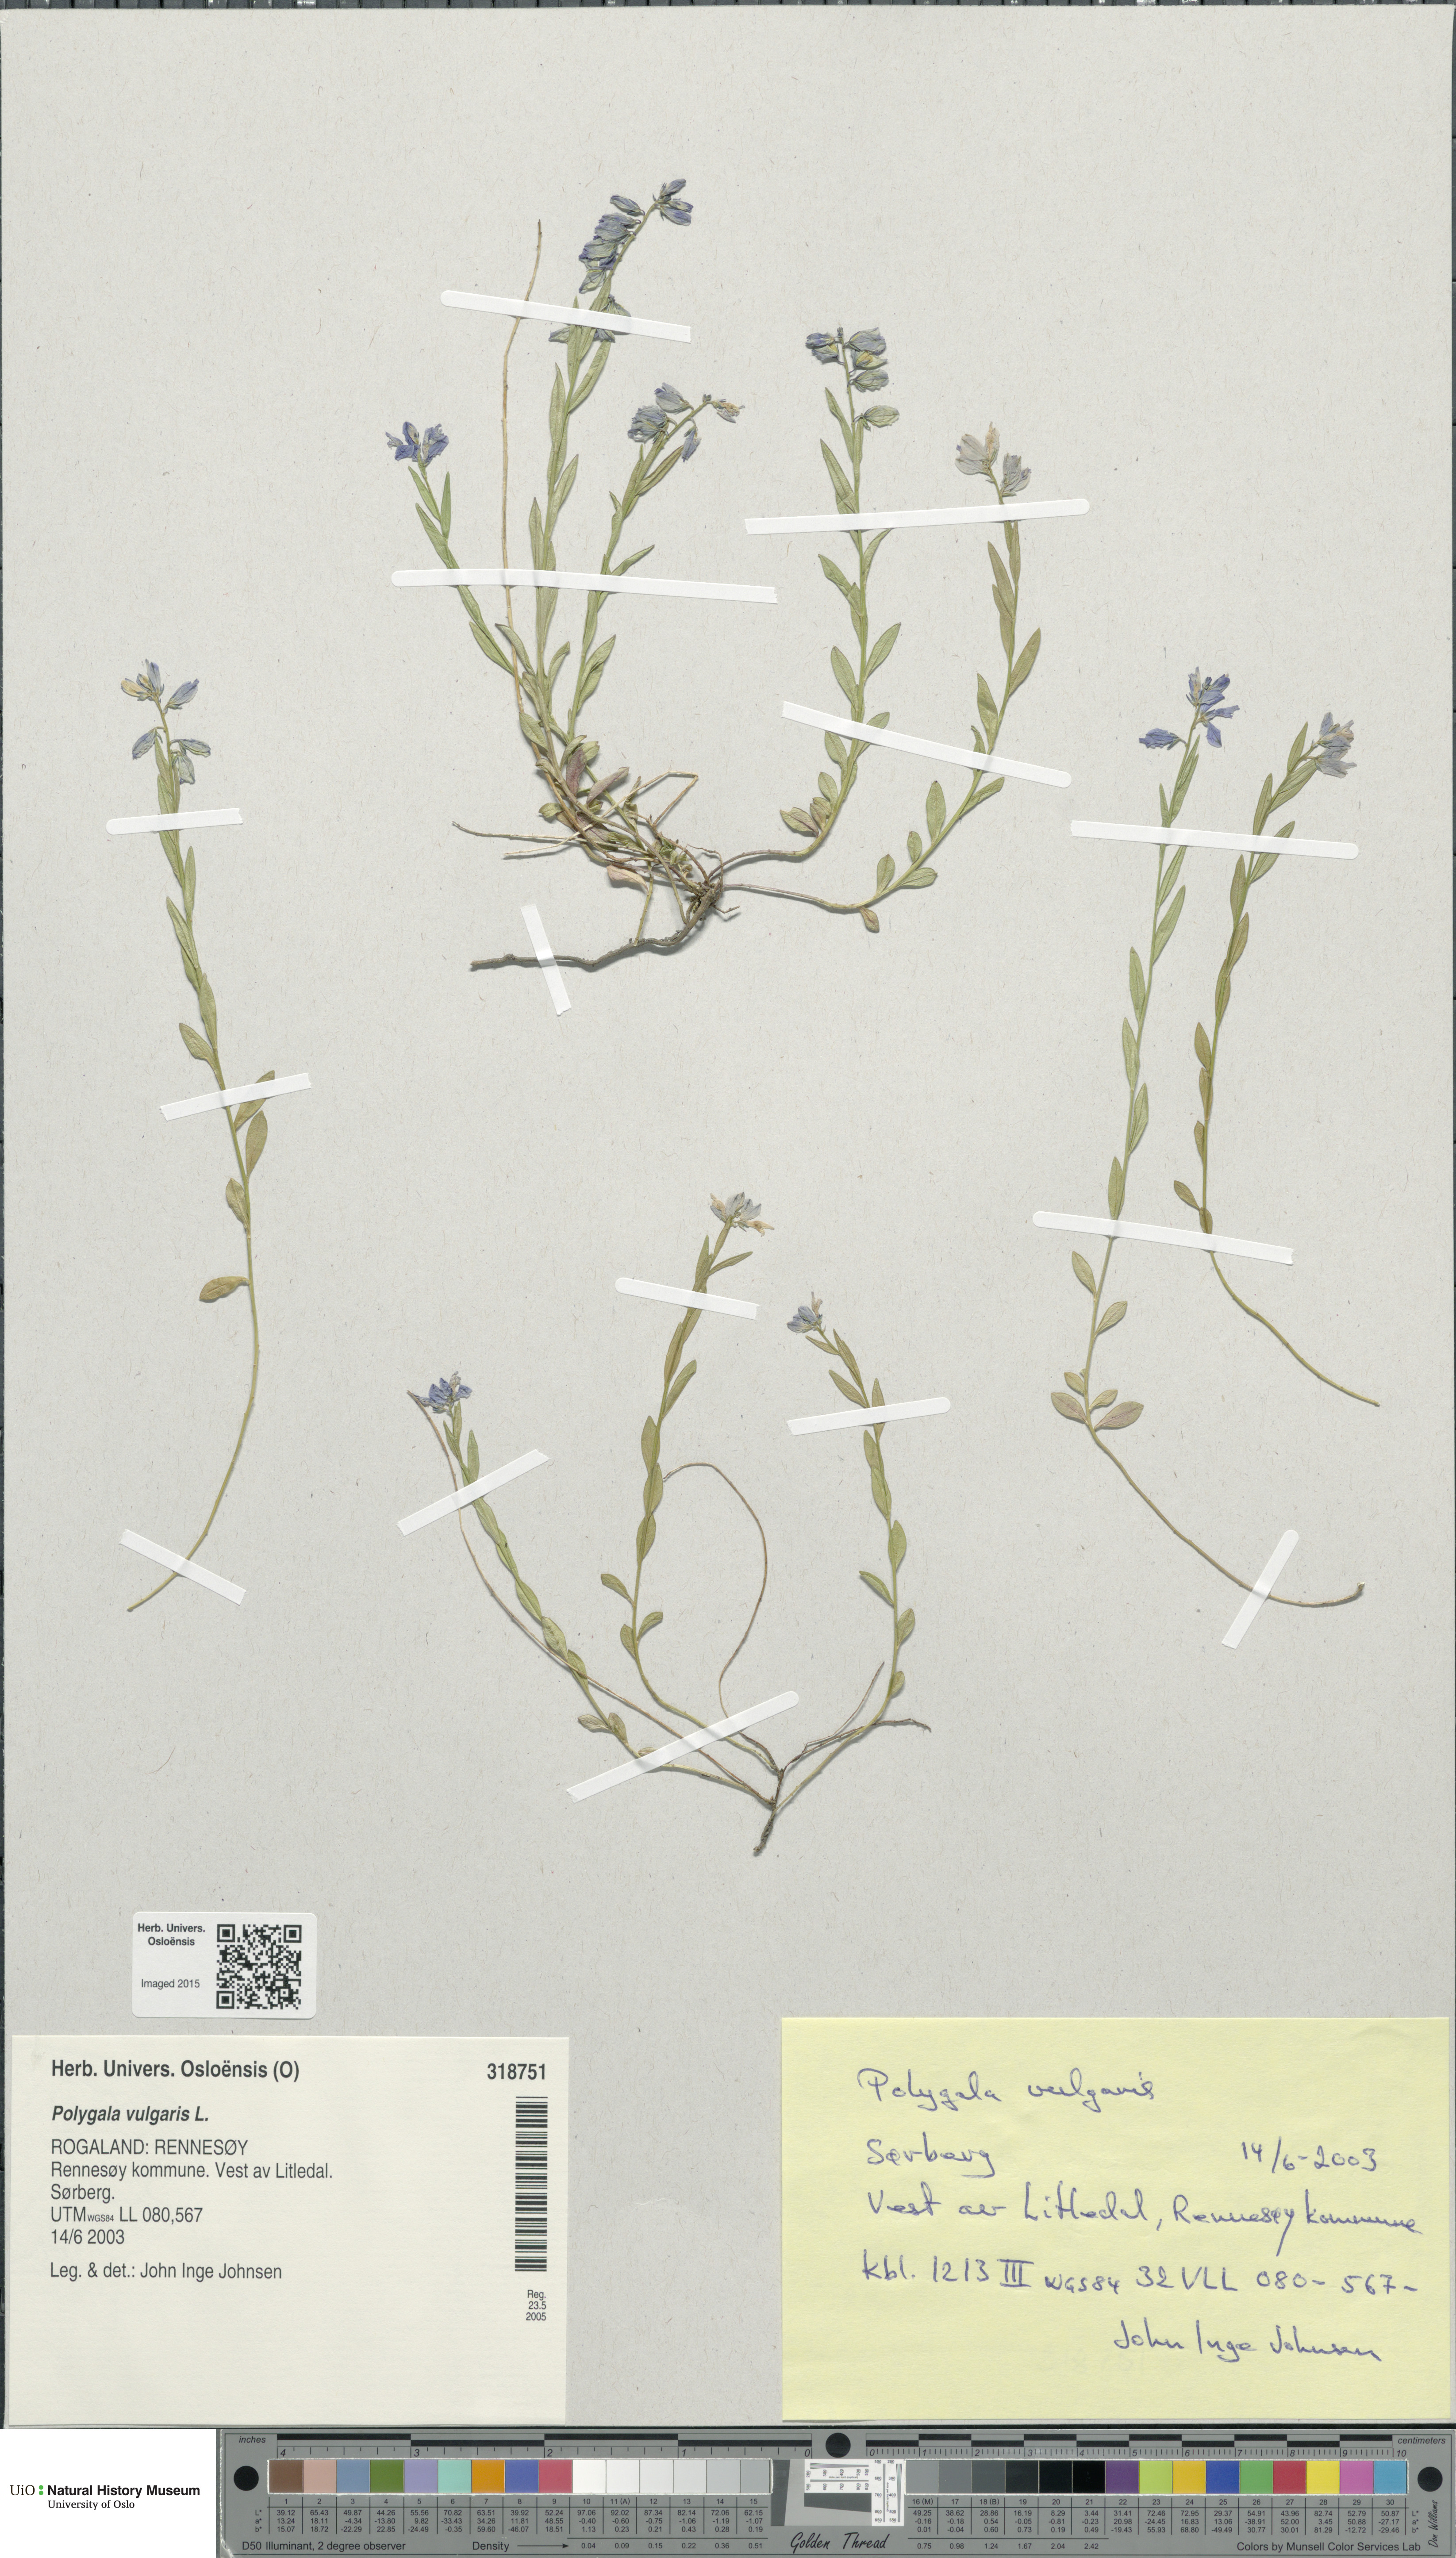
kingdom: Plantae
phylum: Tracheophyta
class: Magnoliopsida
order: Fabales
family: Polygalaceae
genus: Polygala
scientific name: Polygala vulgaris
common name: Common milkwort
